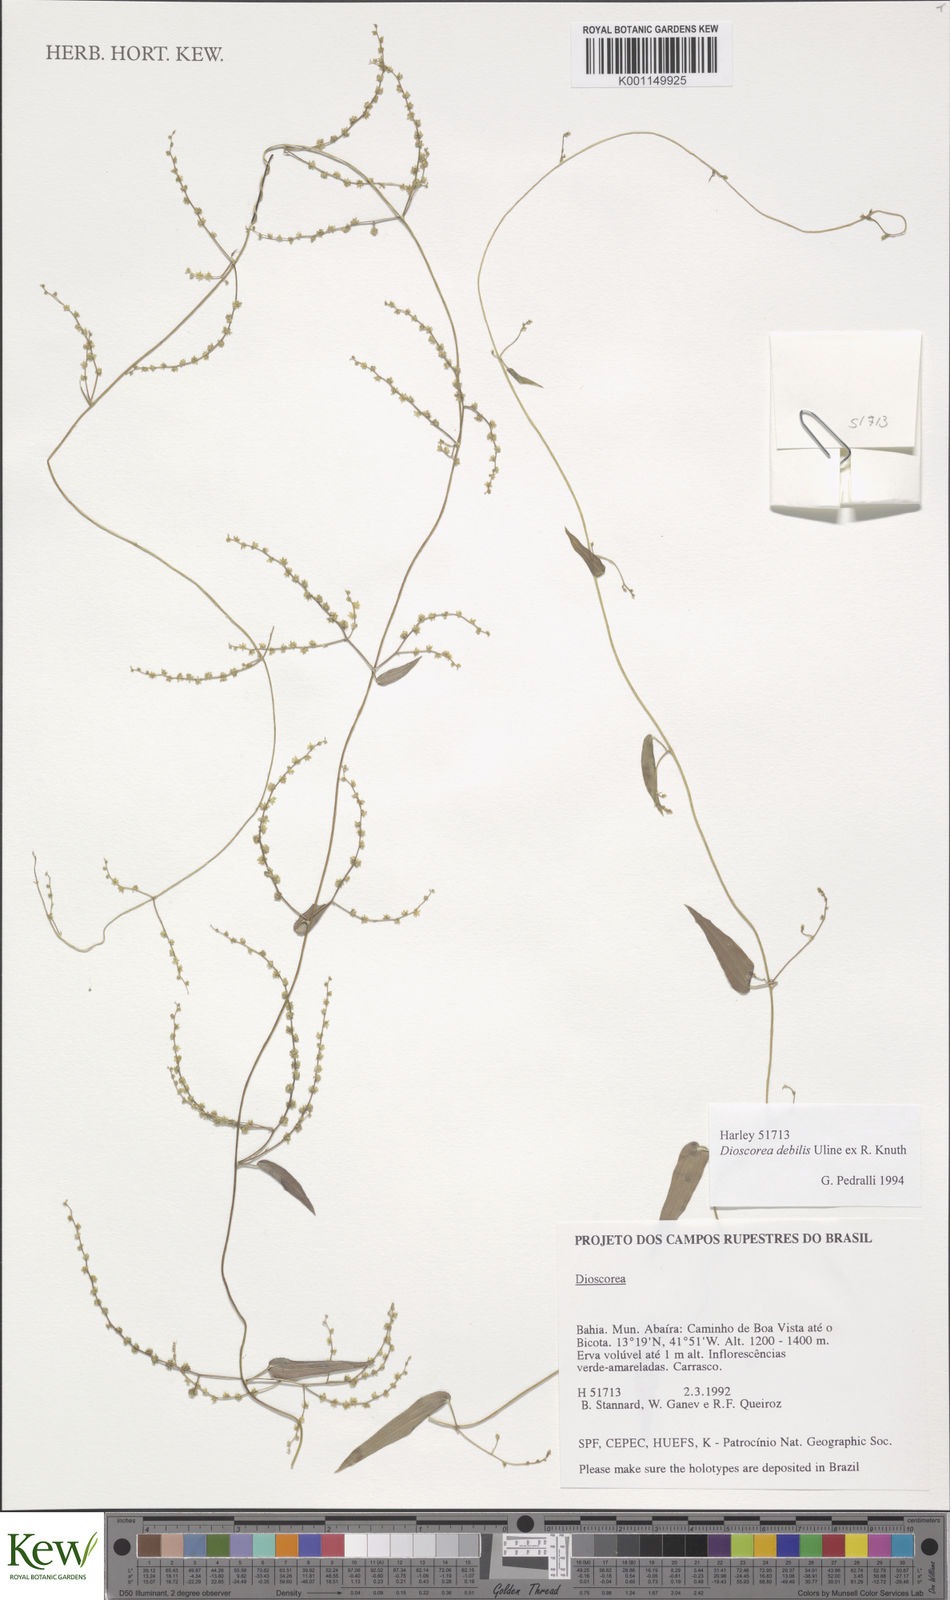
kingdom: Plantae
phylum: Tracheophyta
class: Liliopsida
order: Dioscoreales
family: Dioscoreaceae
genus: Dioscorea
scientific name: Dioscorea debilis
